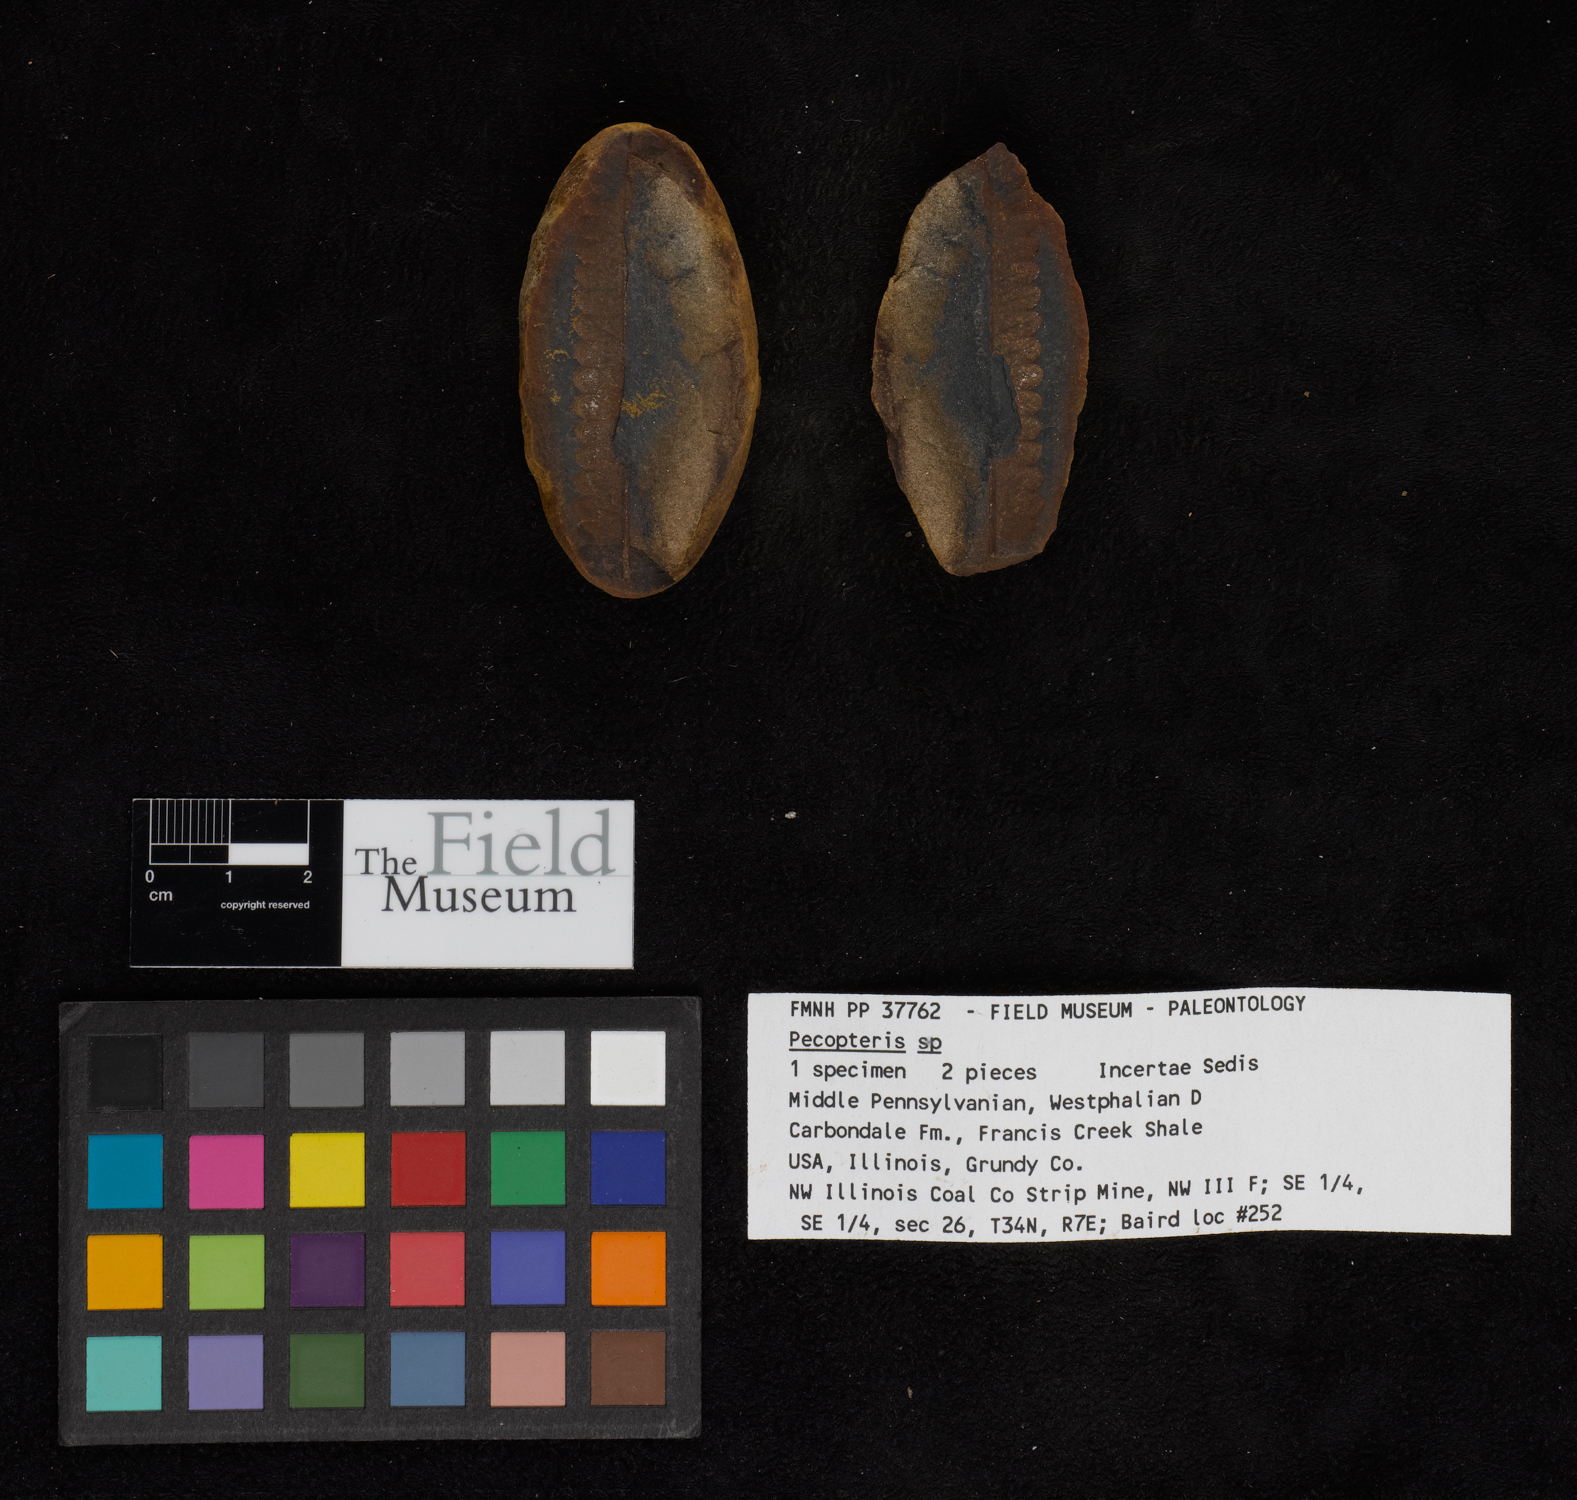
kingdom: Plantae
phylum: Tracheophyta
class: Polypodiopsida
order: Marattiales
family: Asterothecaceae
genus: Pecopteris
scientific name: Pecopteris
